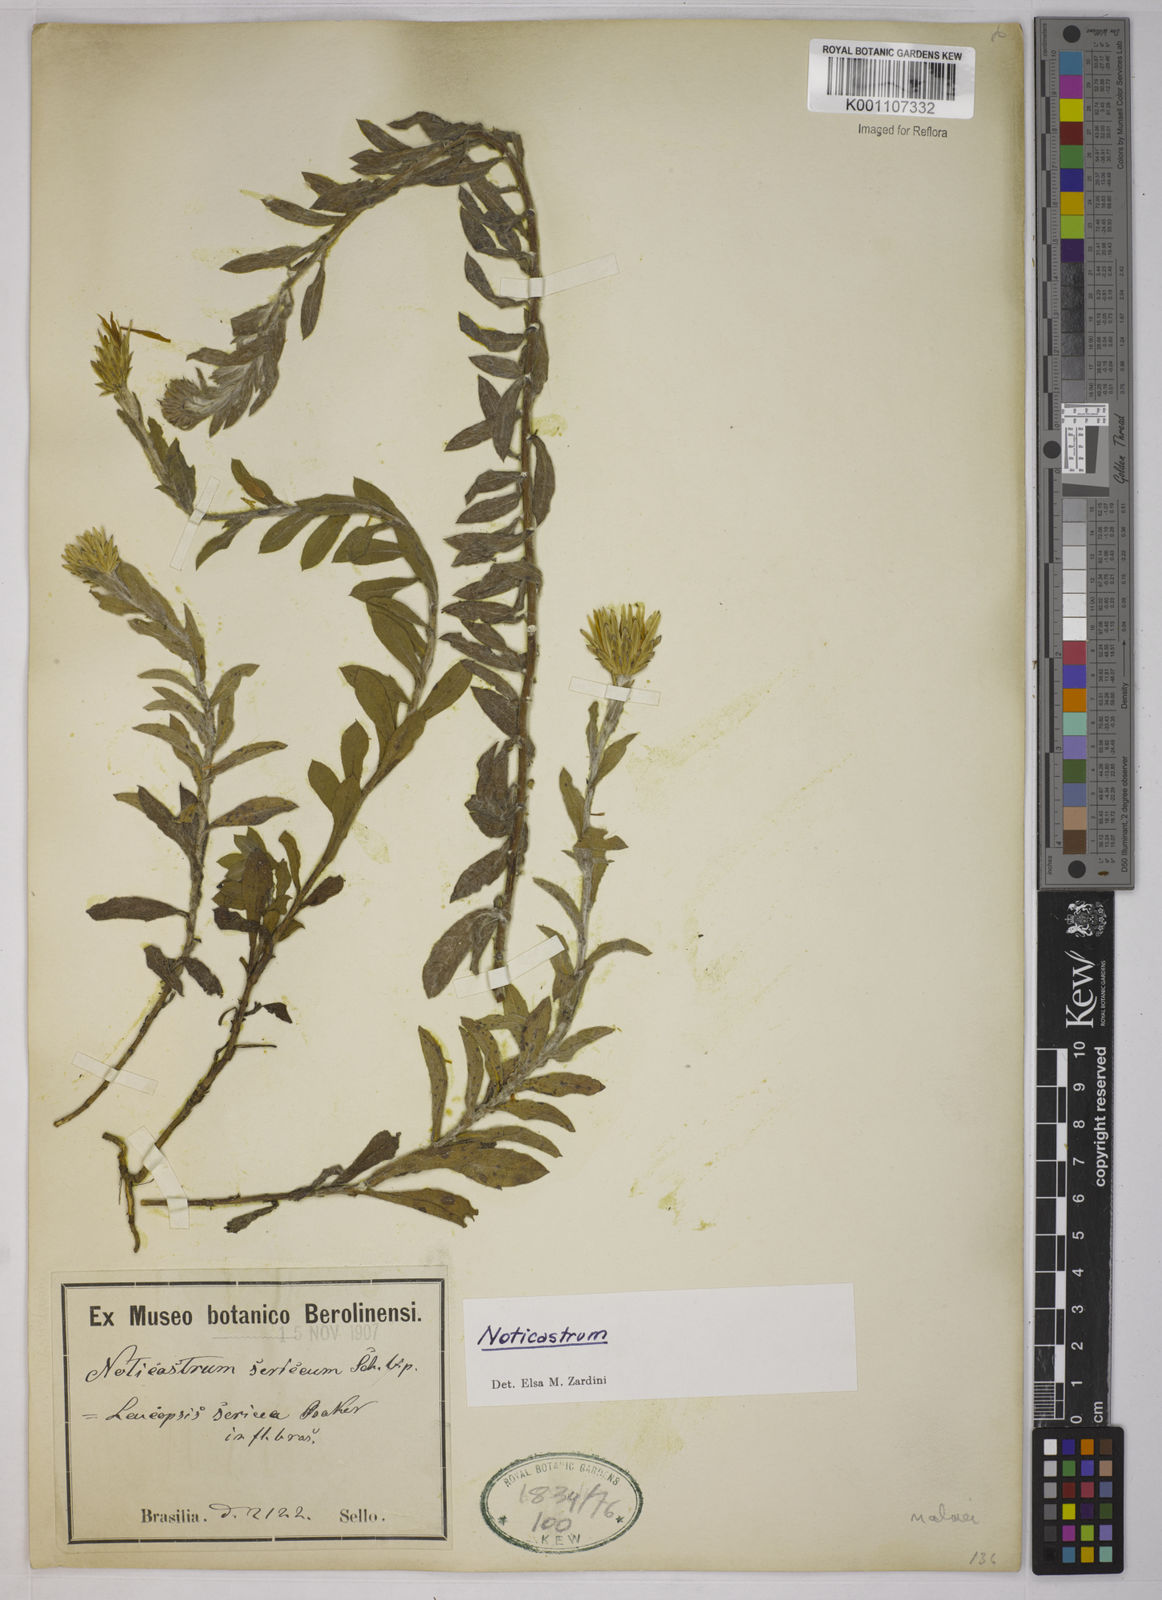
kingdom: Plantae
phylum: Tracheophyta
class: Magnoliopsida
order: Asterales
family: Asteraceae
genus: Noticastrum
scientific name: Noticastrum malmei
